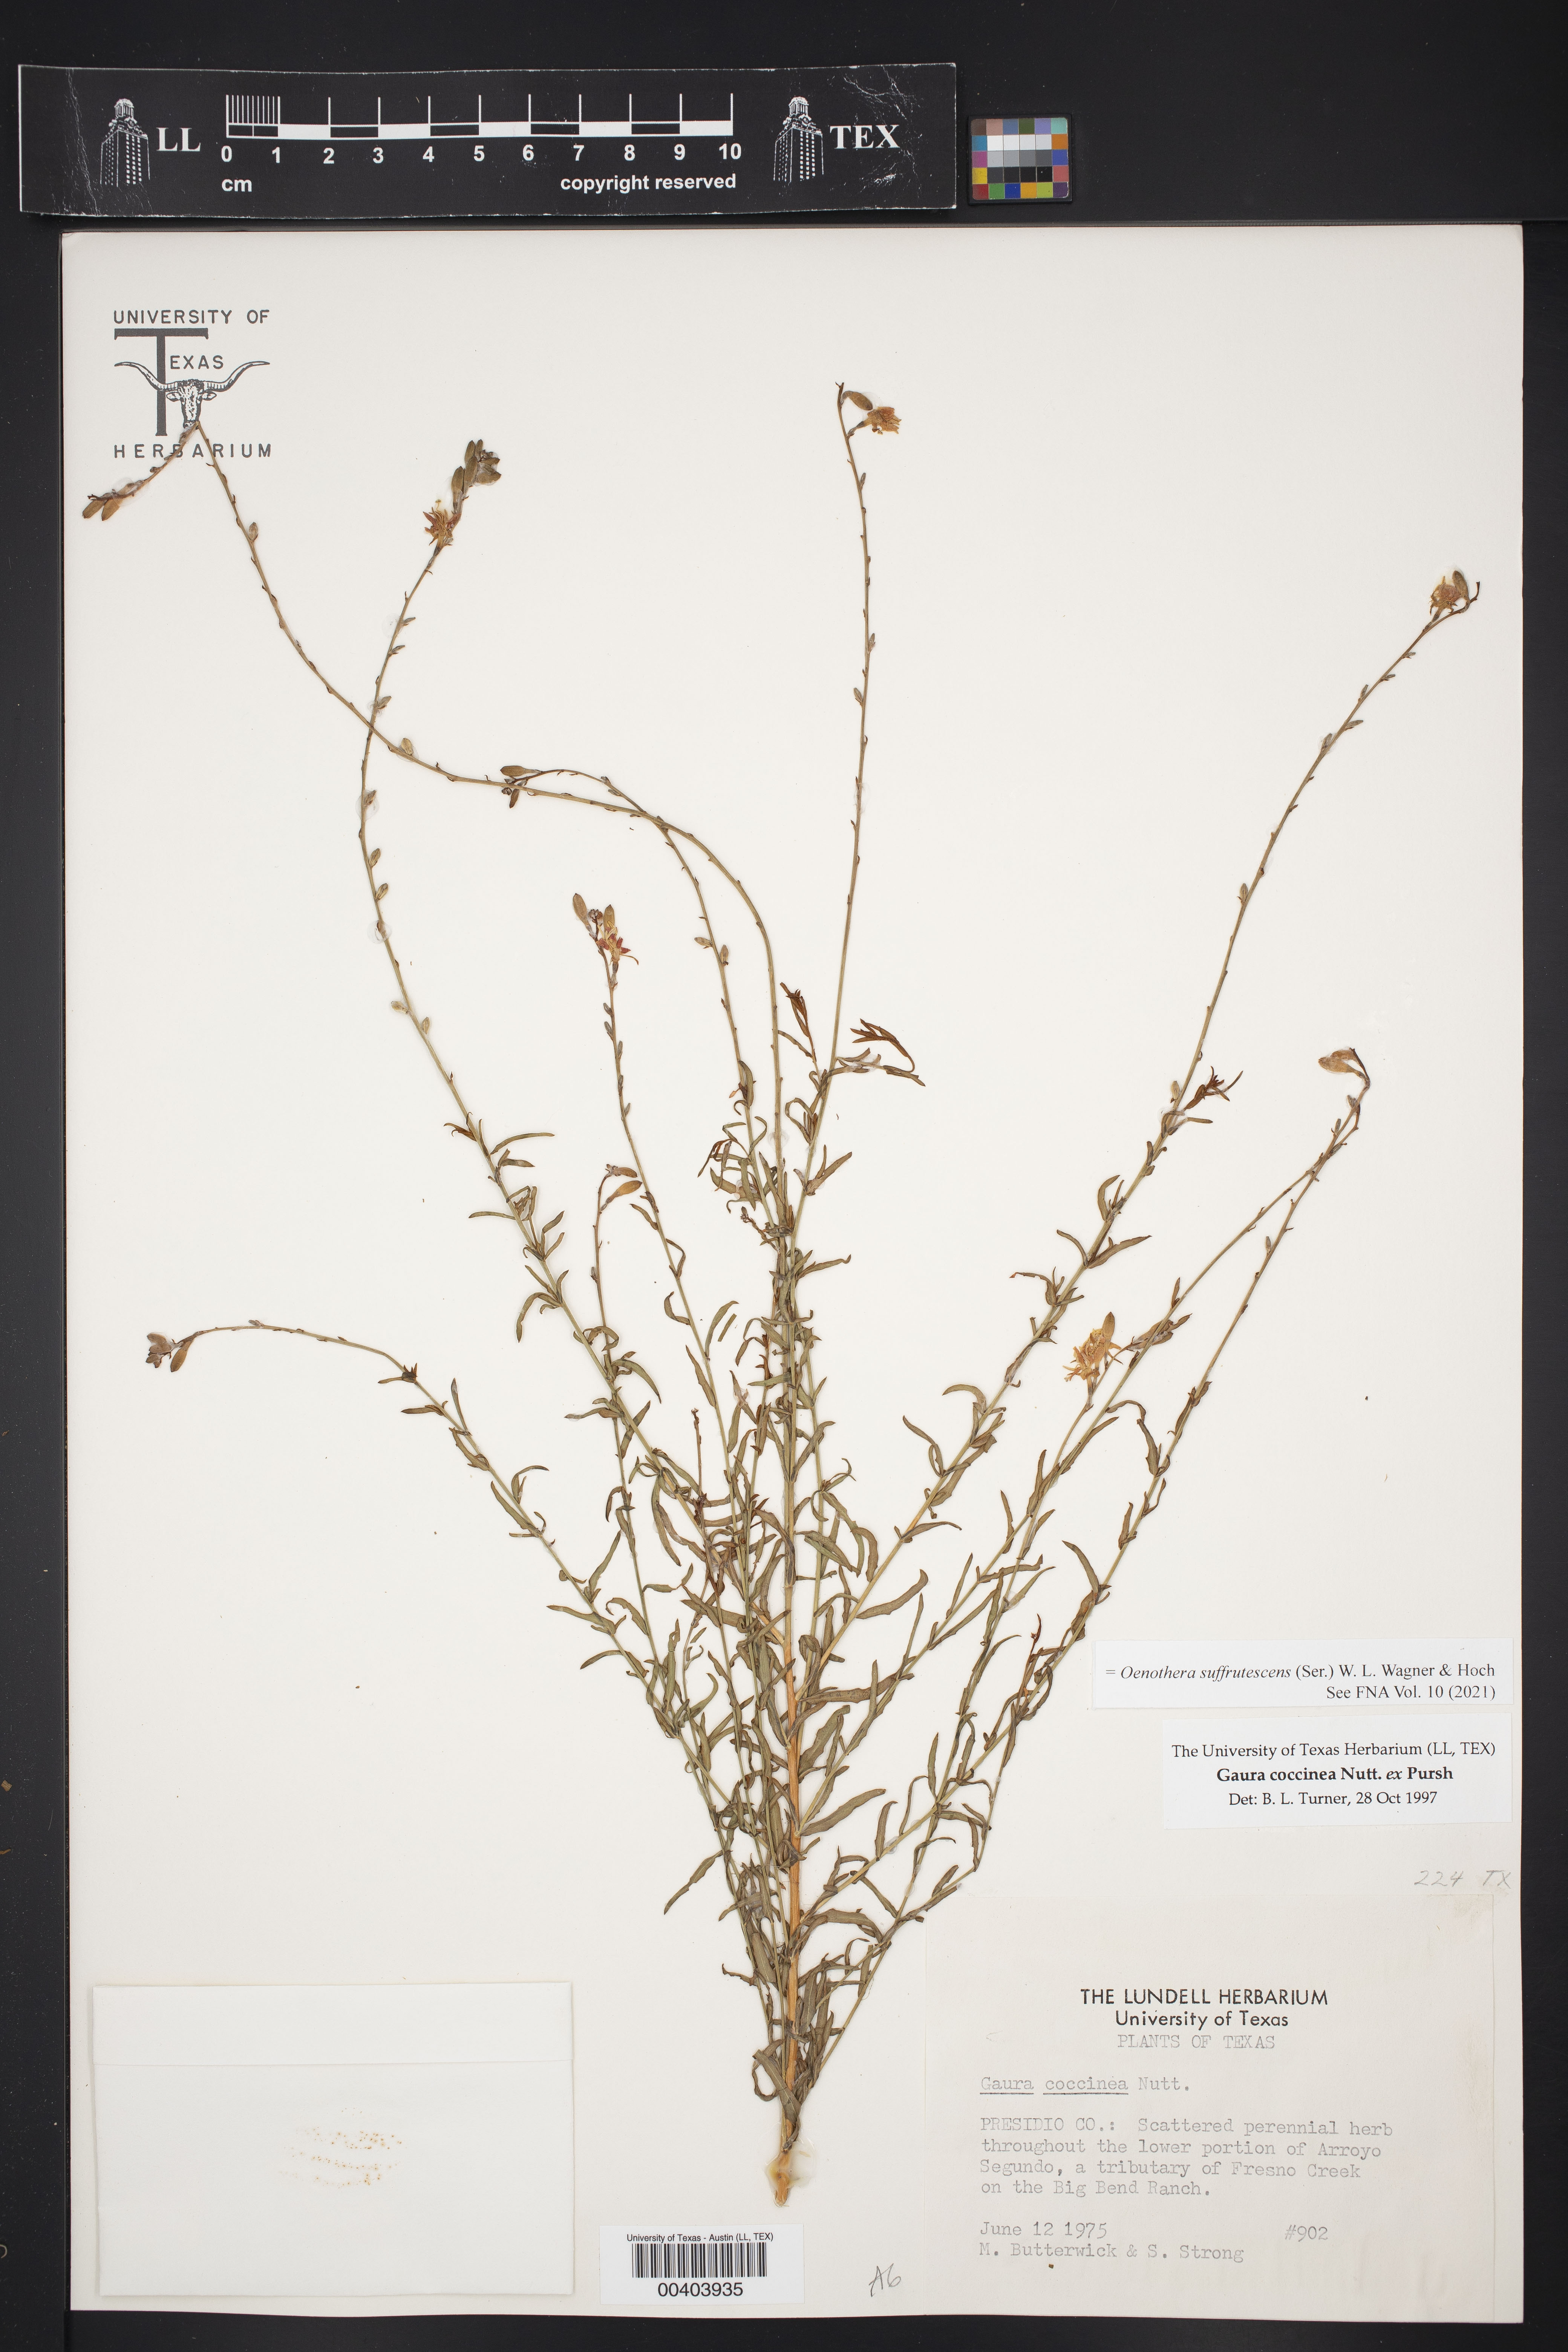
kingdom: Plantae
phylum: Tracheophyta
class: Magnoliopsida
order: Myrtales
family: Onagraceae
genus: Oenothera
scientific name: Oenothera suffrutescens
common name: Scarlet beeblossom
